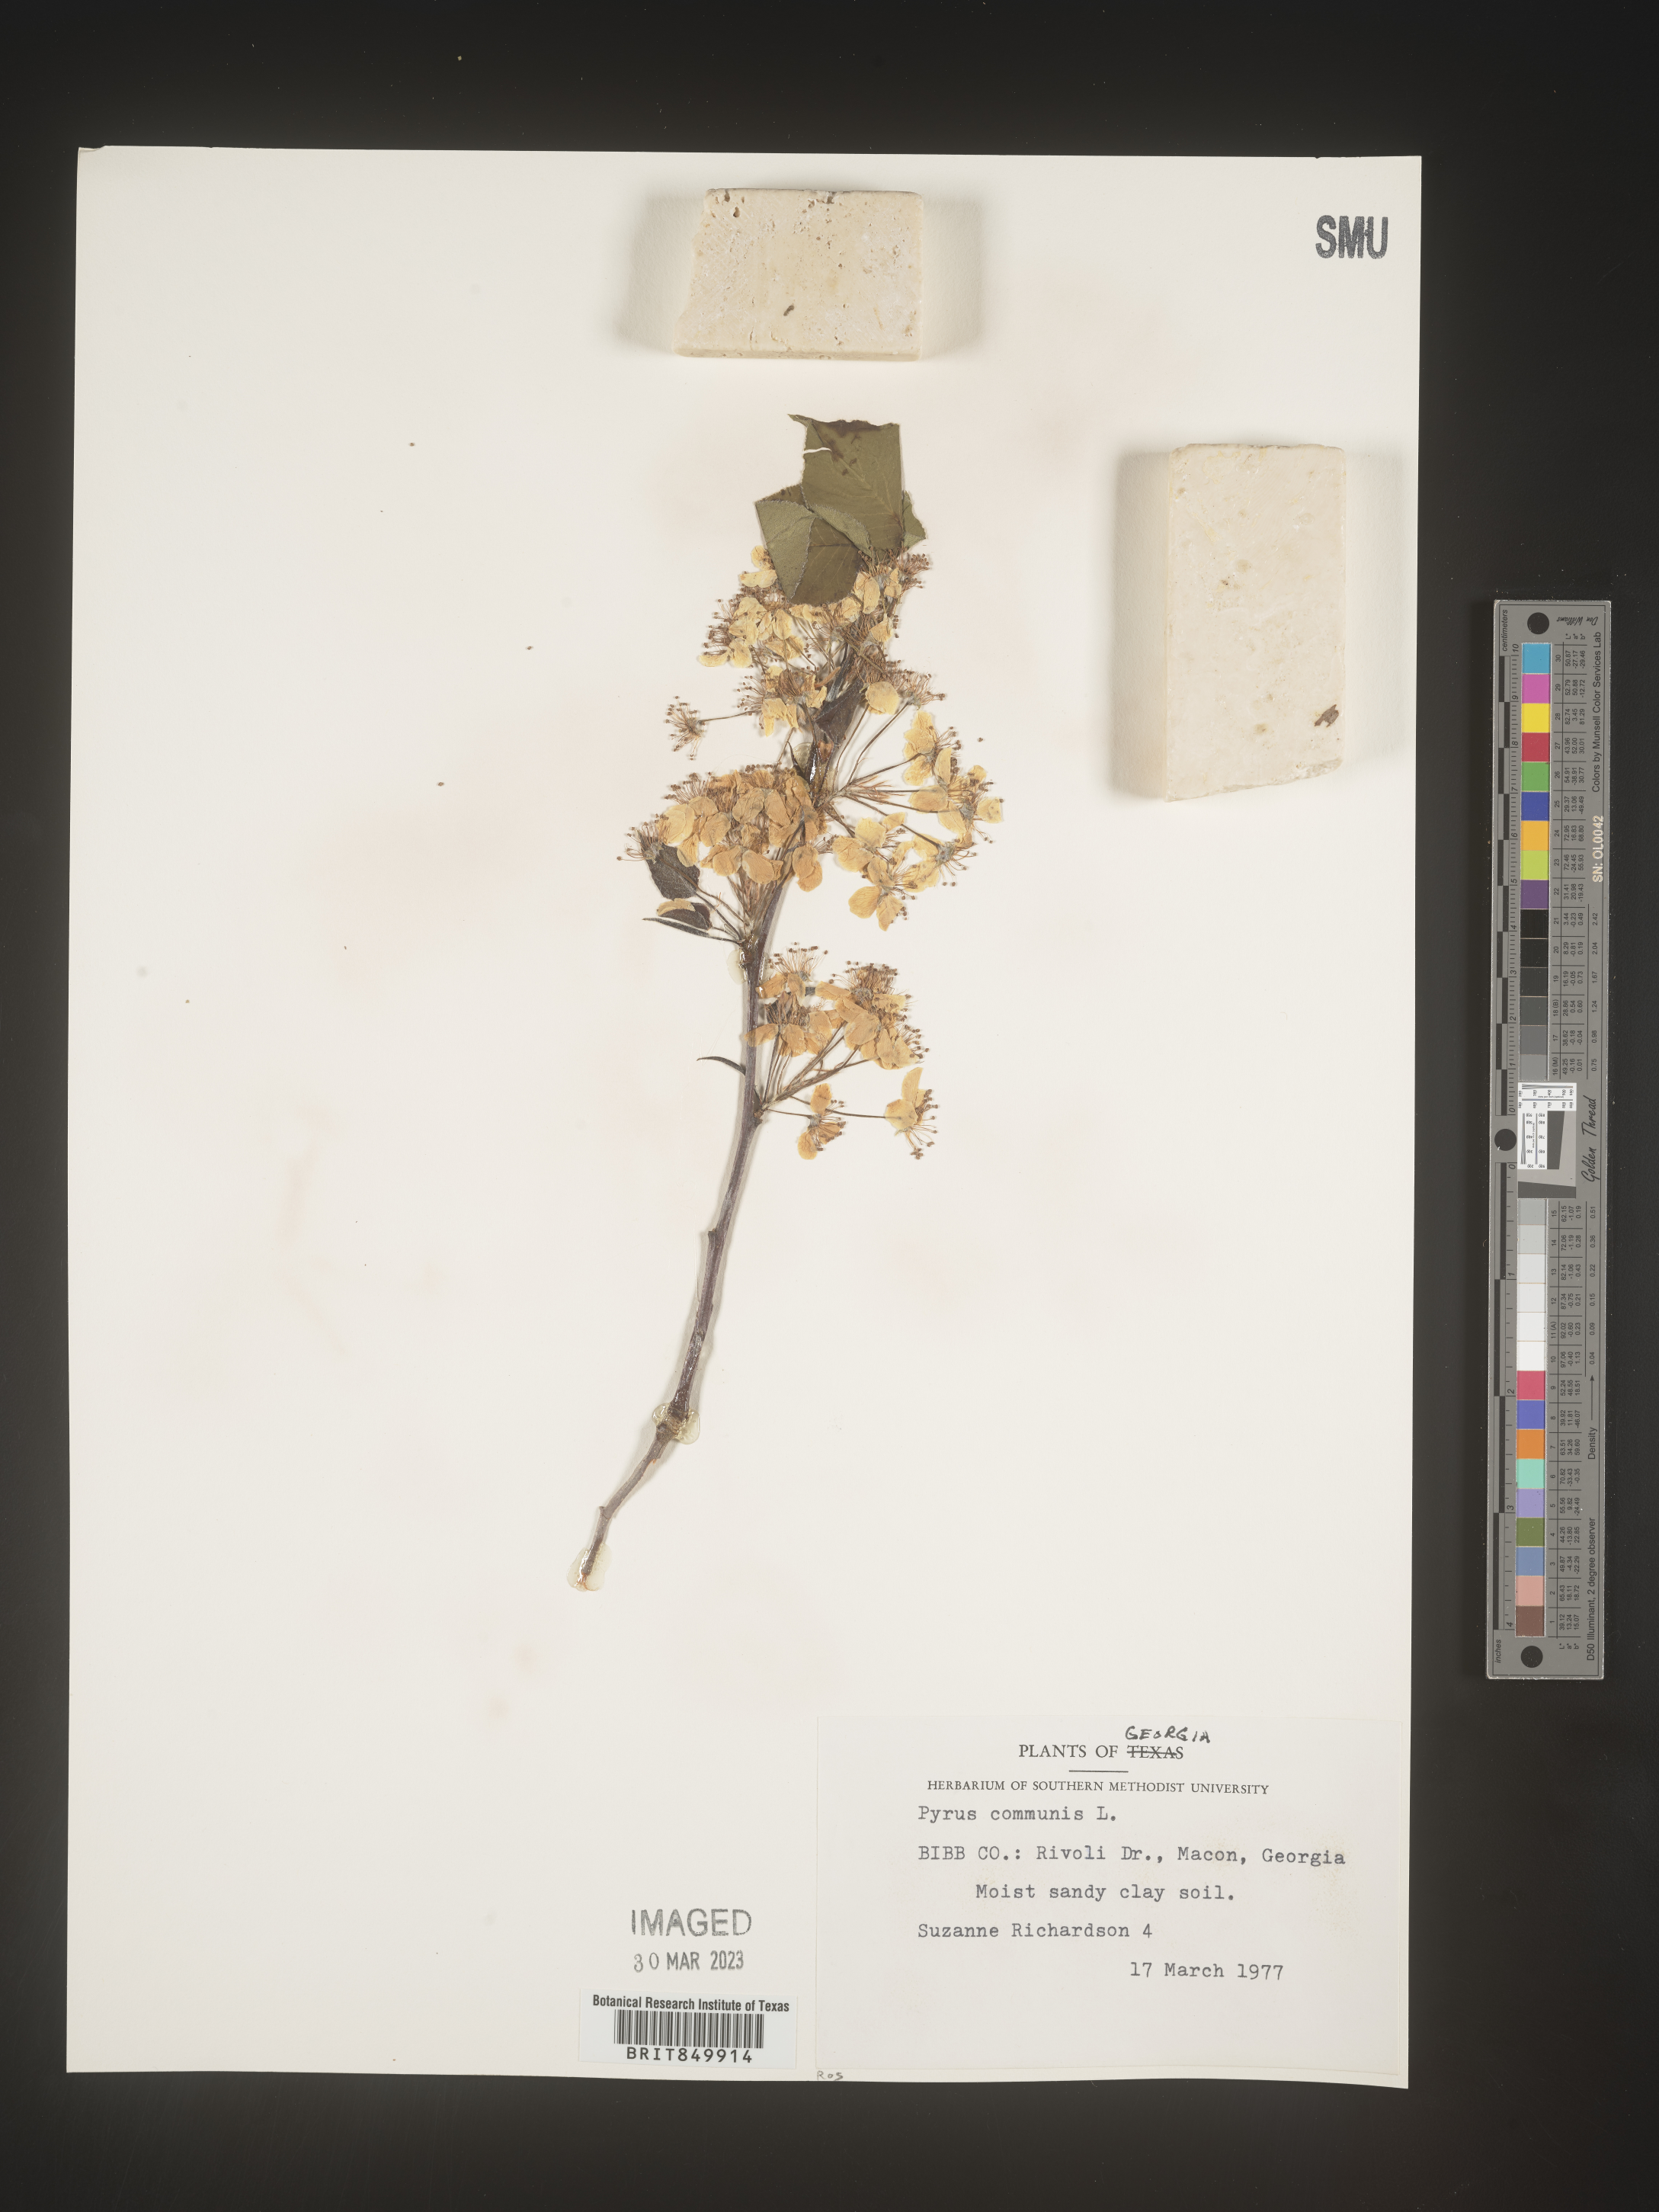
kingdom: Plantae
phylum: Tracheophyta
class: Magnoliopsida
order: Rosales
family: Rosaceae
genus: Pyrus
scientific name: Pyrus
